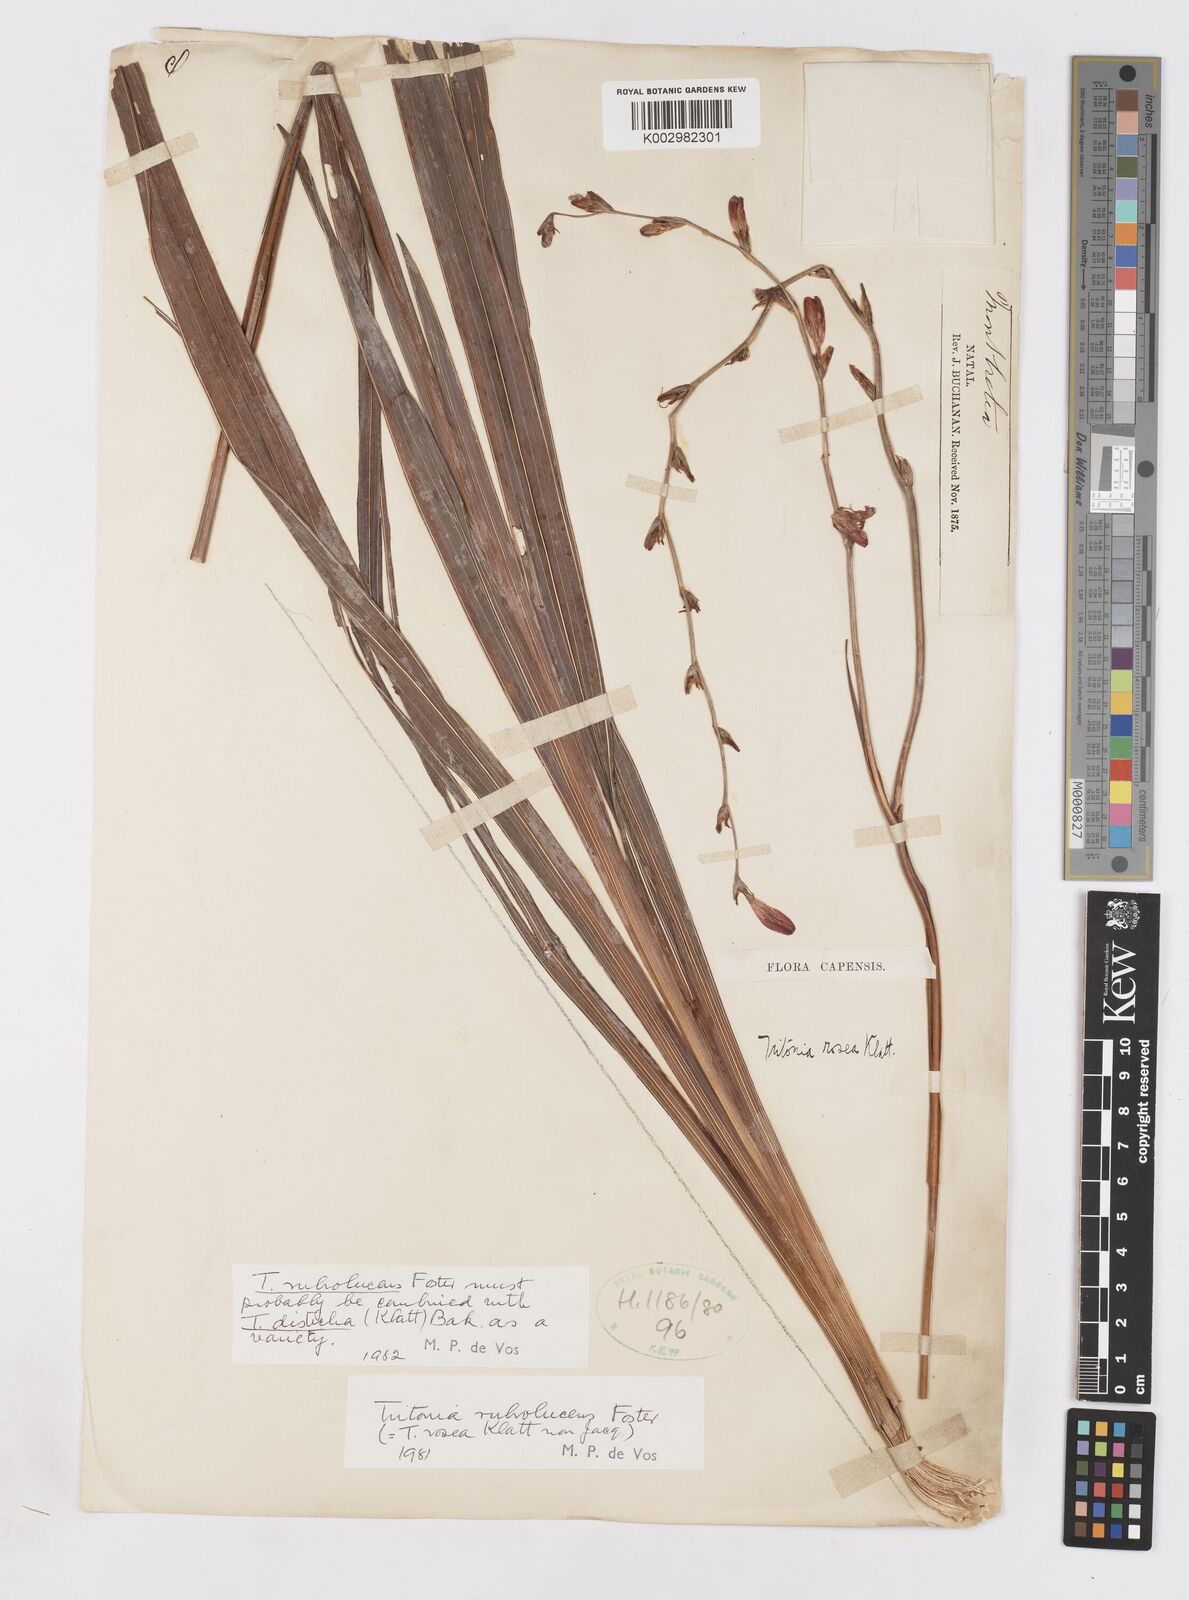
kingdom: Plantae
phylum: Tracheophyta
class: Liliopsida
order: Asparagales
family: Iridaceae
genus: Tritonia
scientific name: Tritonia disticha
